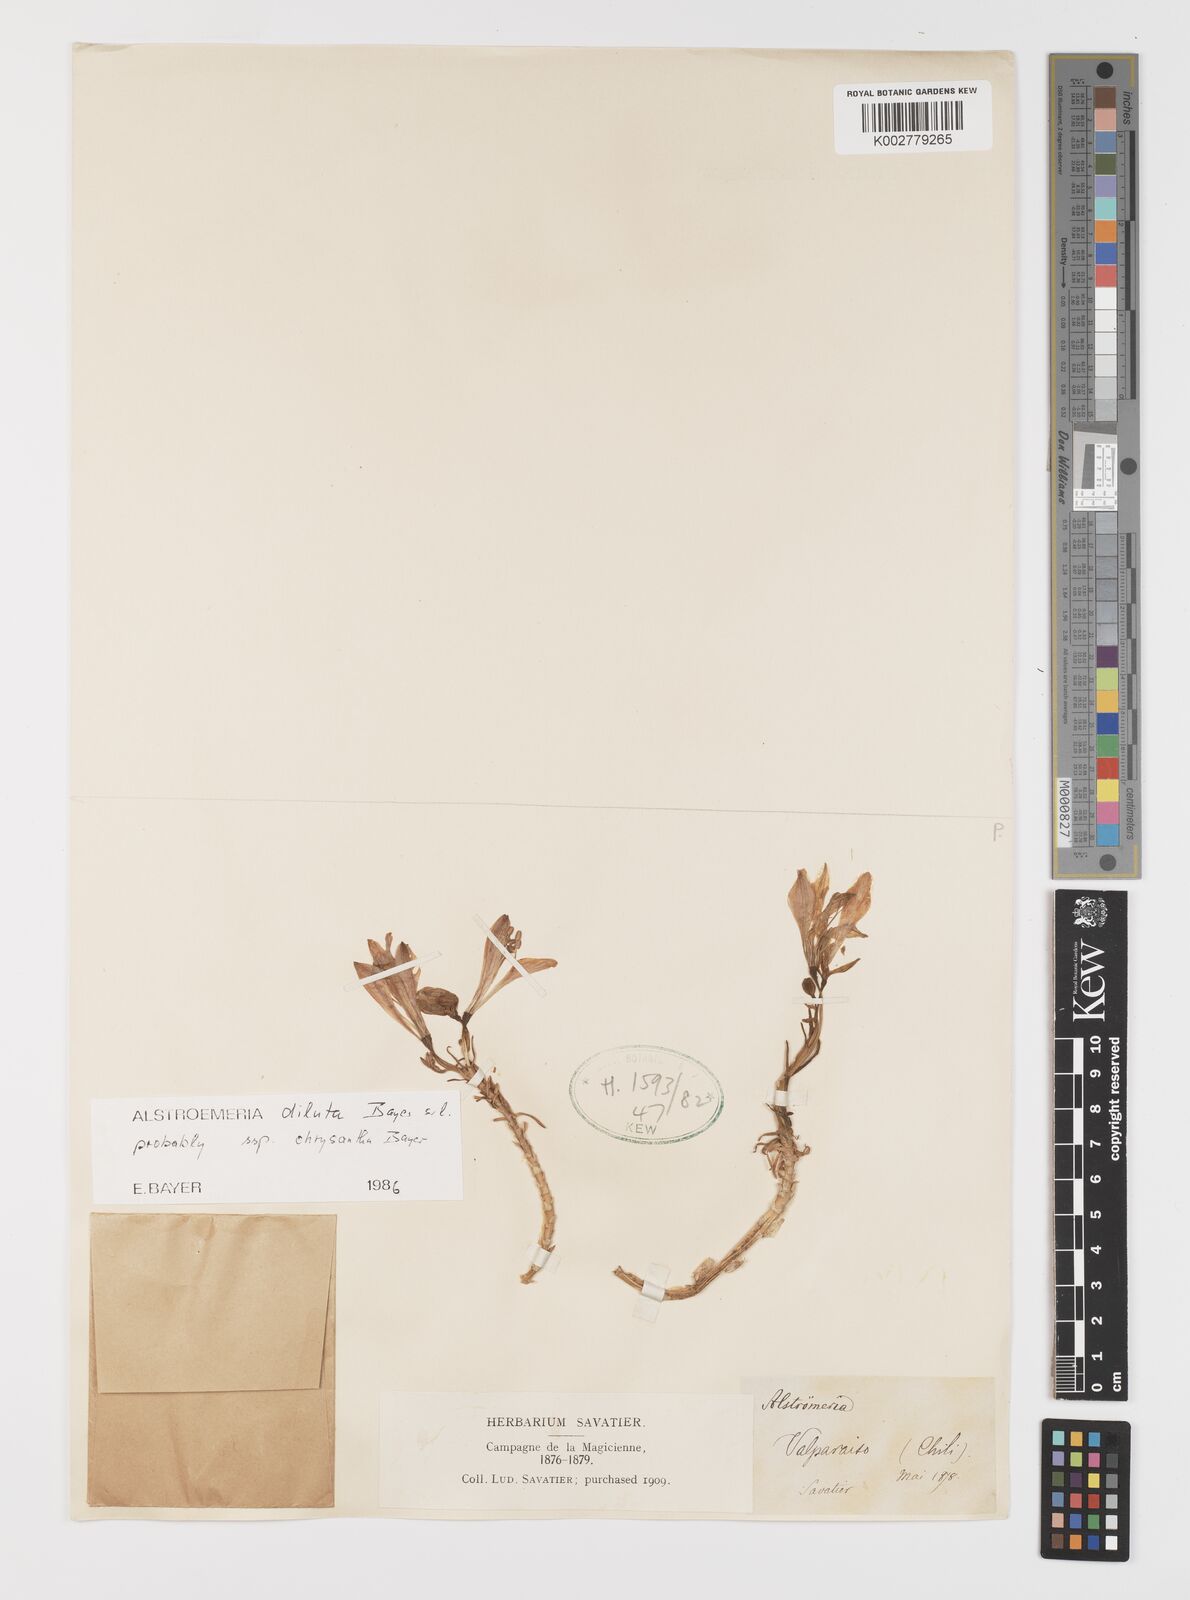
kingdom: Plantae
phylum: Tracheophyta
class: Liliopsida
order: Liliales
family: Alstroemeriaceae
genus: Alstroemeria
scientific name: Alstroemeria chrysantha
